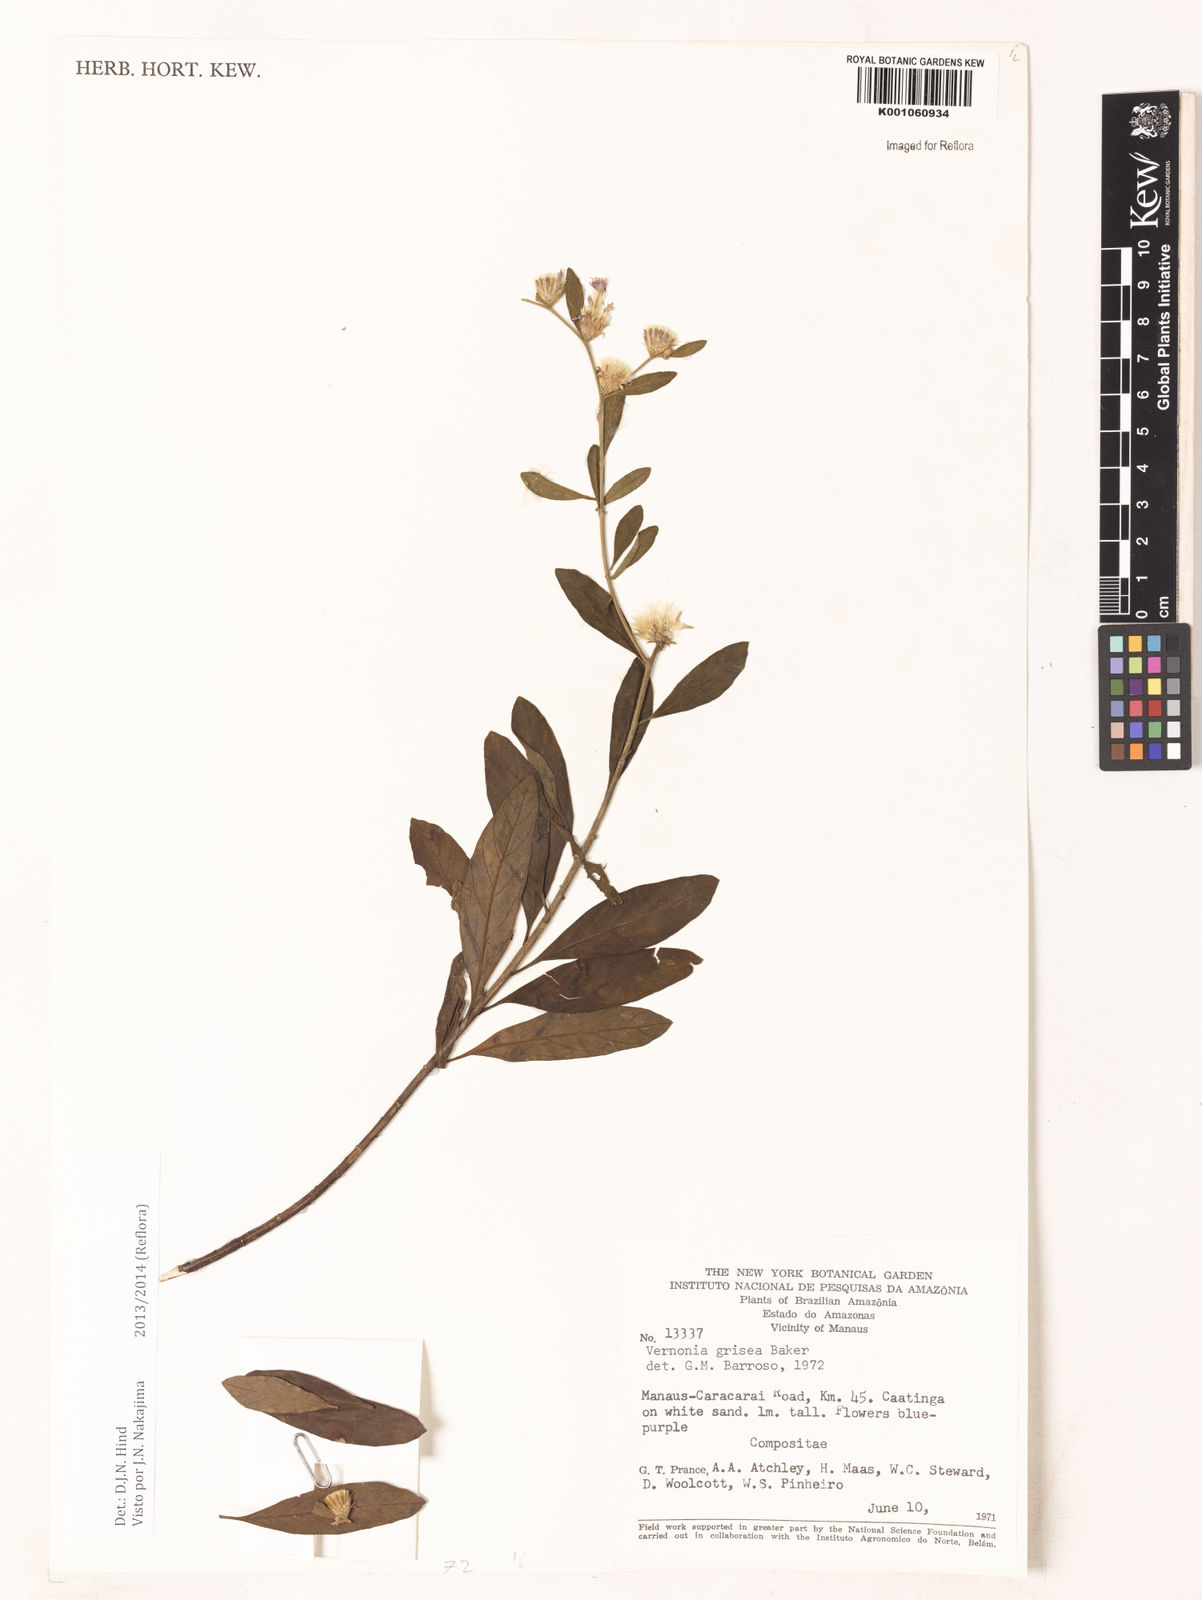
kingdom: Plantae
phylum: Tracheophyta
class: Magnoliopsida
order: Asterales
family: Asteraceae
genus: Lepidaploa
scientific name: Lepidaploa grisea
